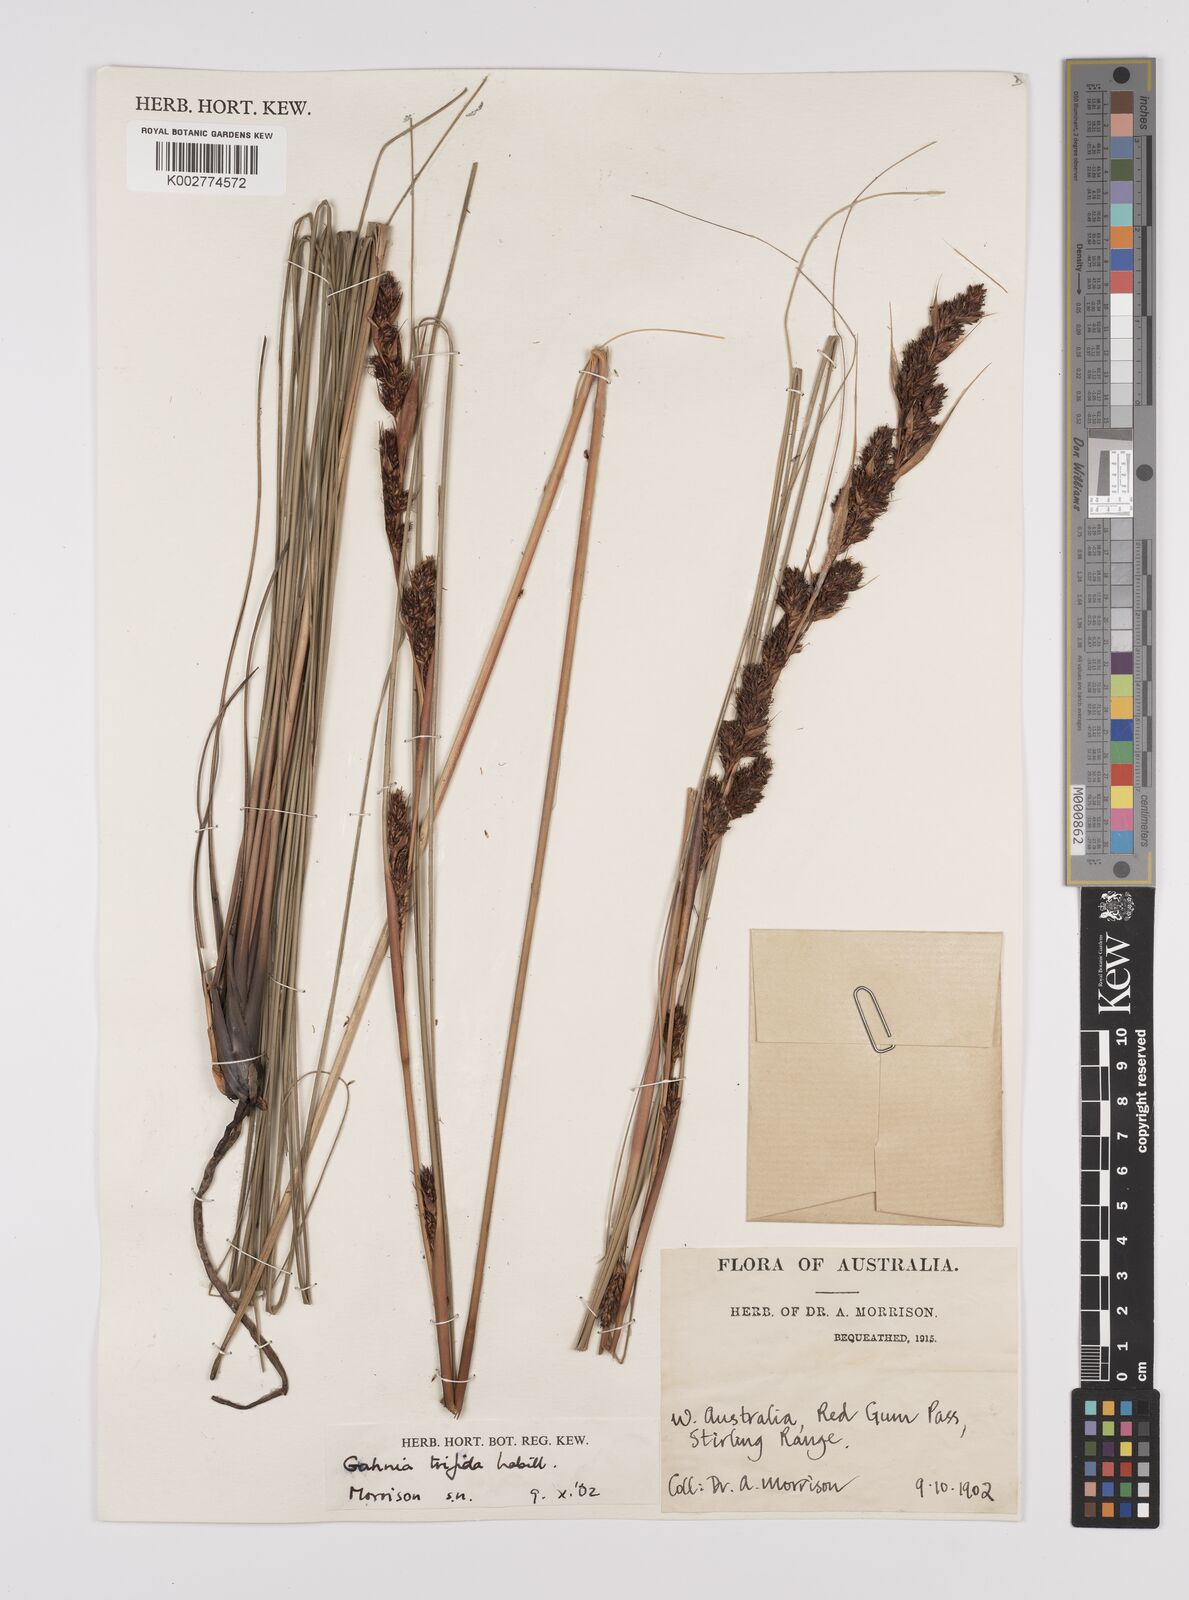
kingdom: Plantae
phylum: Tracheophyta
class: Liliopsida
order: Poales
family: Cyperaceae
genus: Gahnia
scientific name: Gahnia trifida
